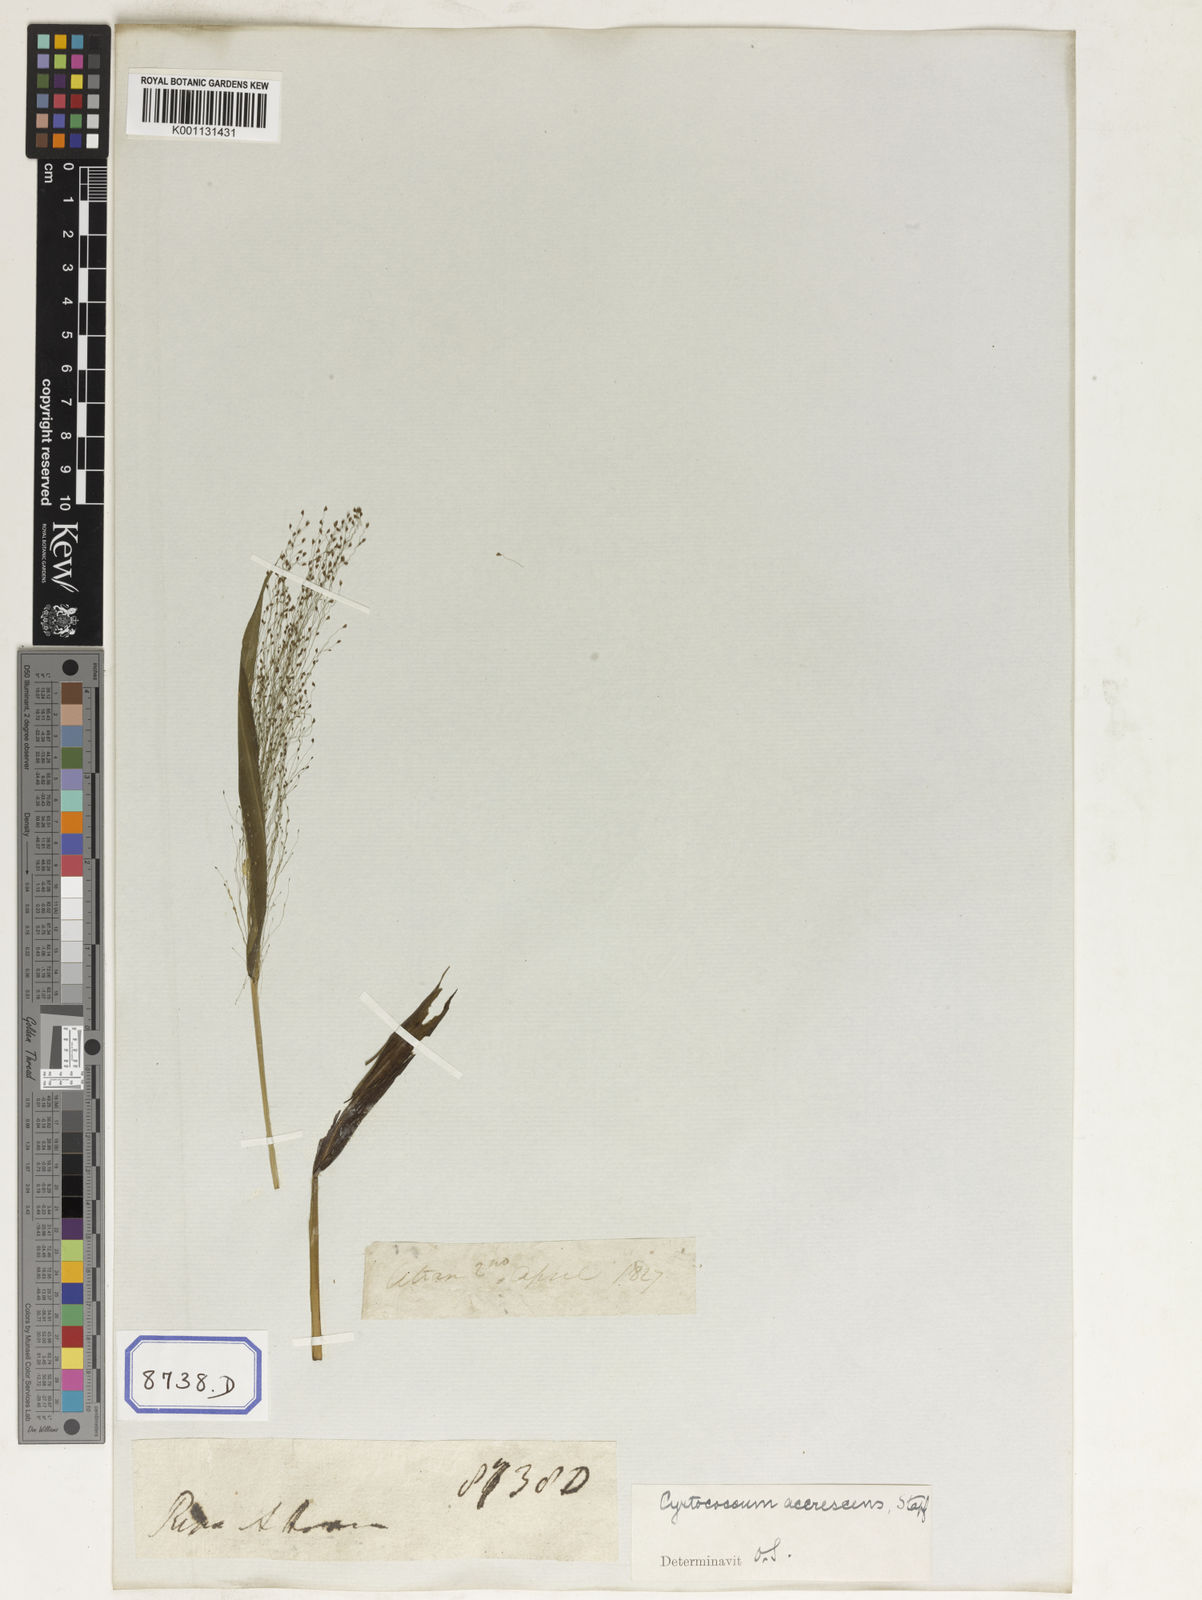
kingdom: Plantae
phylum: Tracheophyta
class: Liliopsida
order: Poales
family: Poaceae
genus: Panicum
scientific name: Panicum
